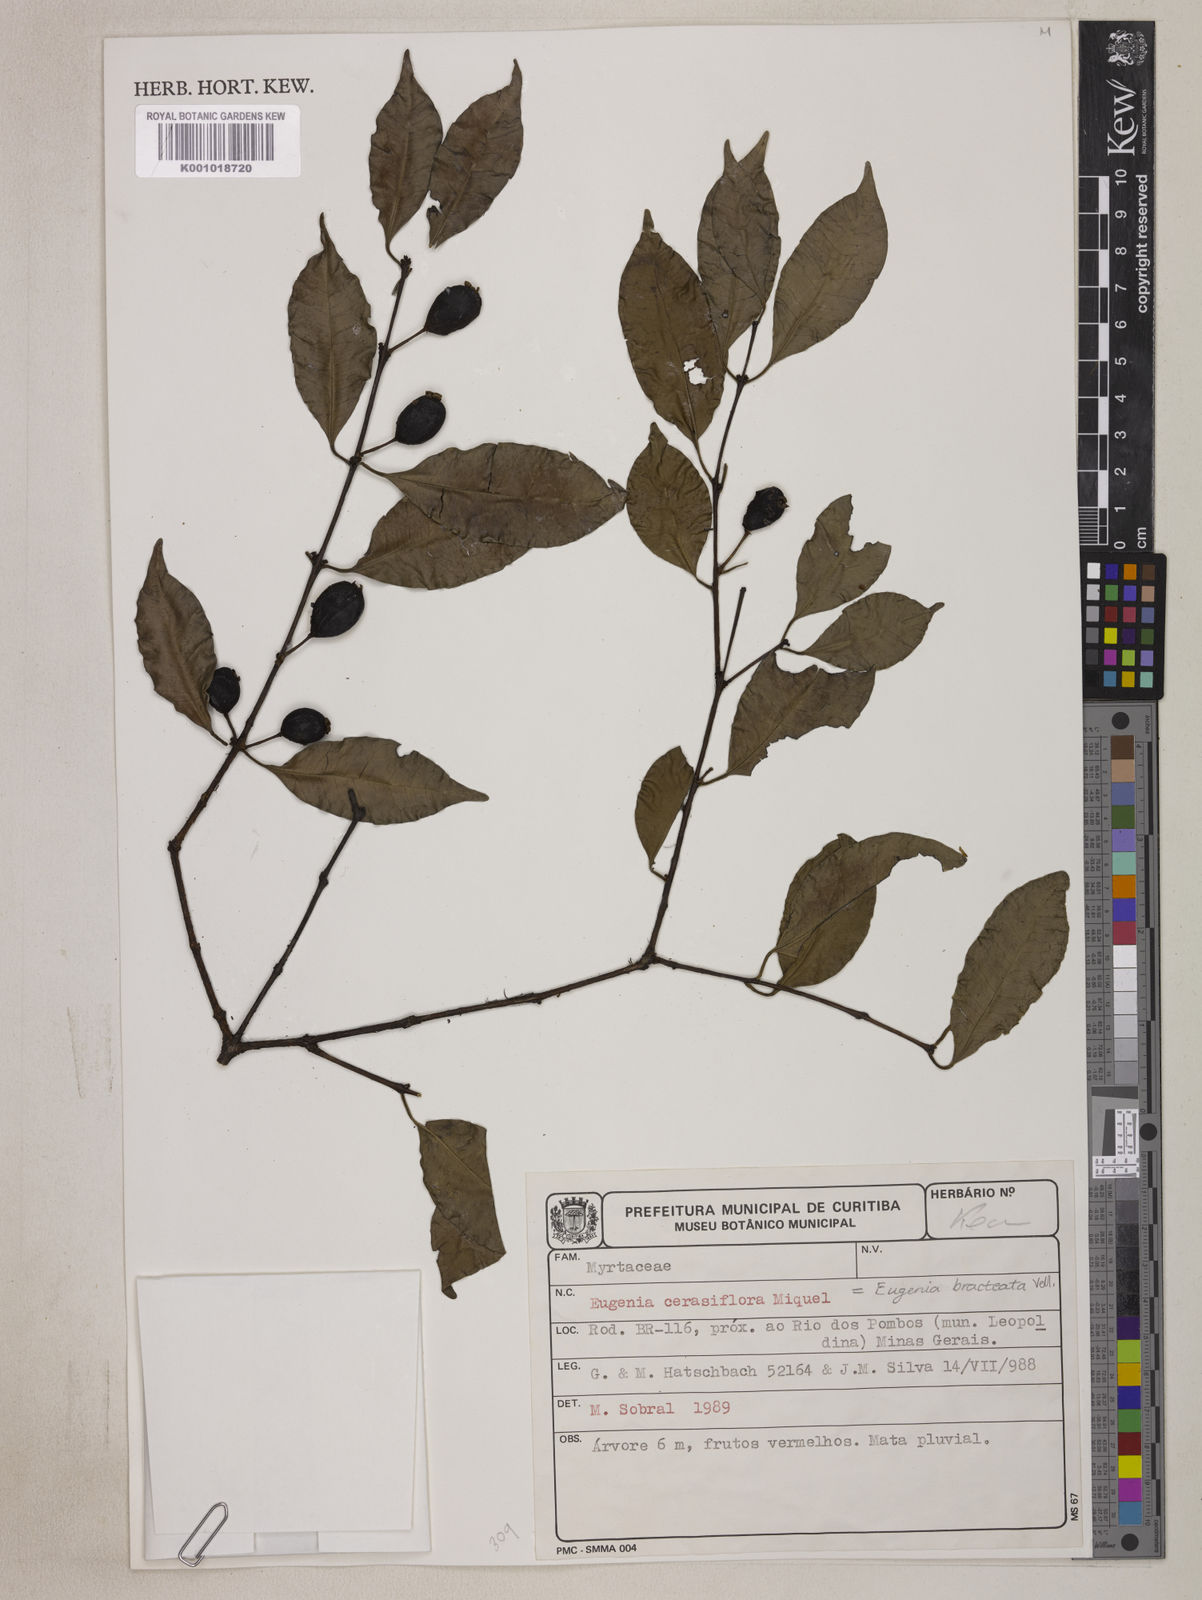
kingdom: Plantae
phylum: Tracheophyta
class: Magnoliopsida
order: Myrtales
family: Myrtaceae
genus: Eugenia
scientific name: Eugenia cerasiflora
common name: Cherry-of-the-rio-grande
